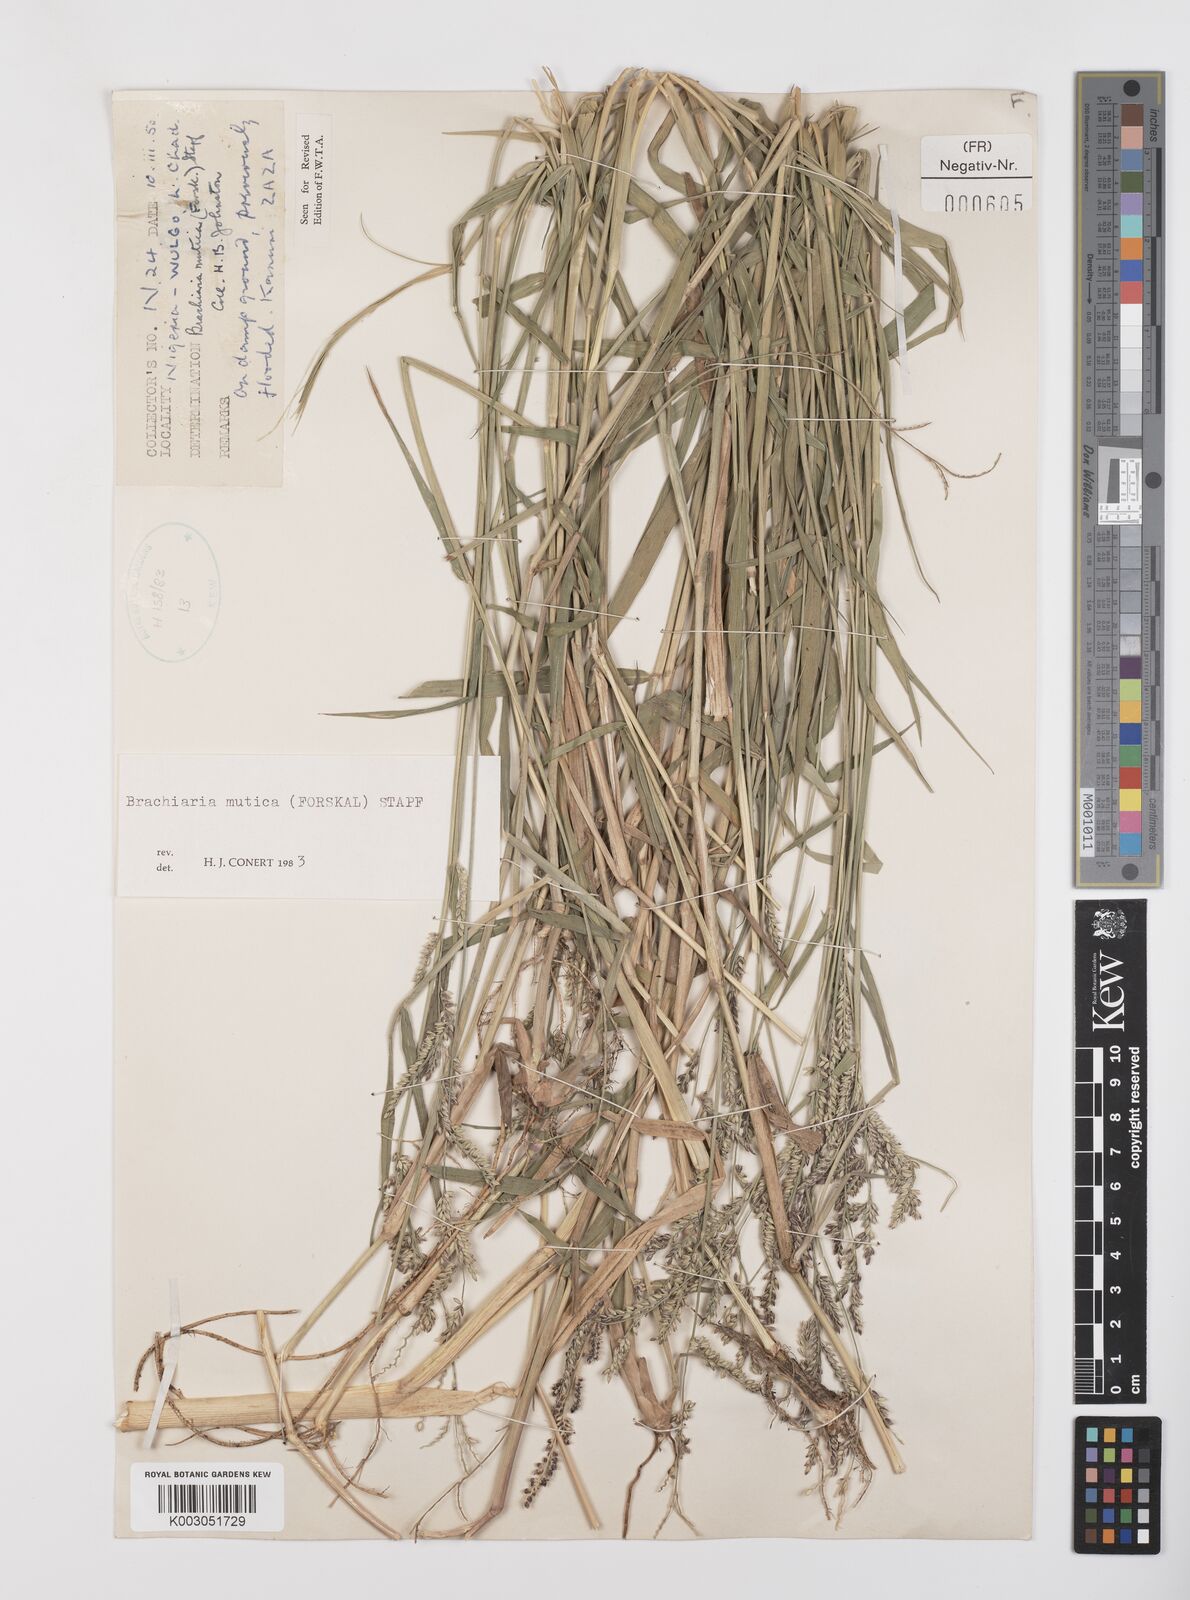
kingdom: Plantae
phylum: Tracheophyta
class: Liliopsida
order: Poales
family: Poaceae
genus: Urochloa
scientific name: Urochloa mutica
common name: Para grass
